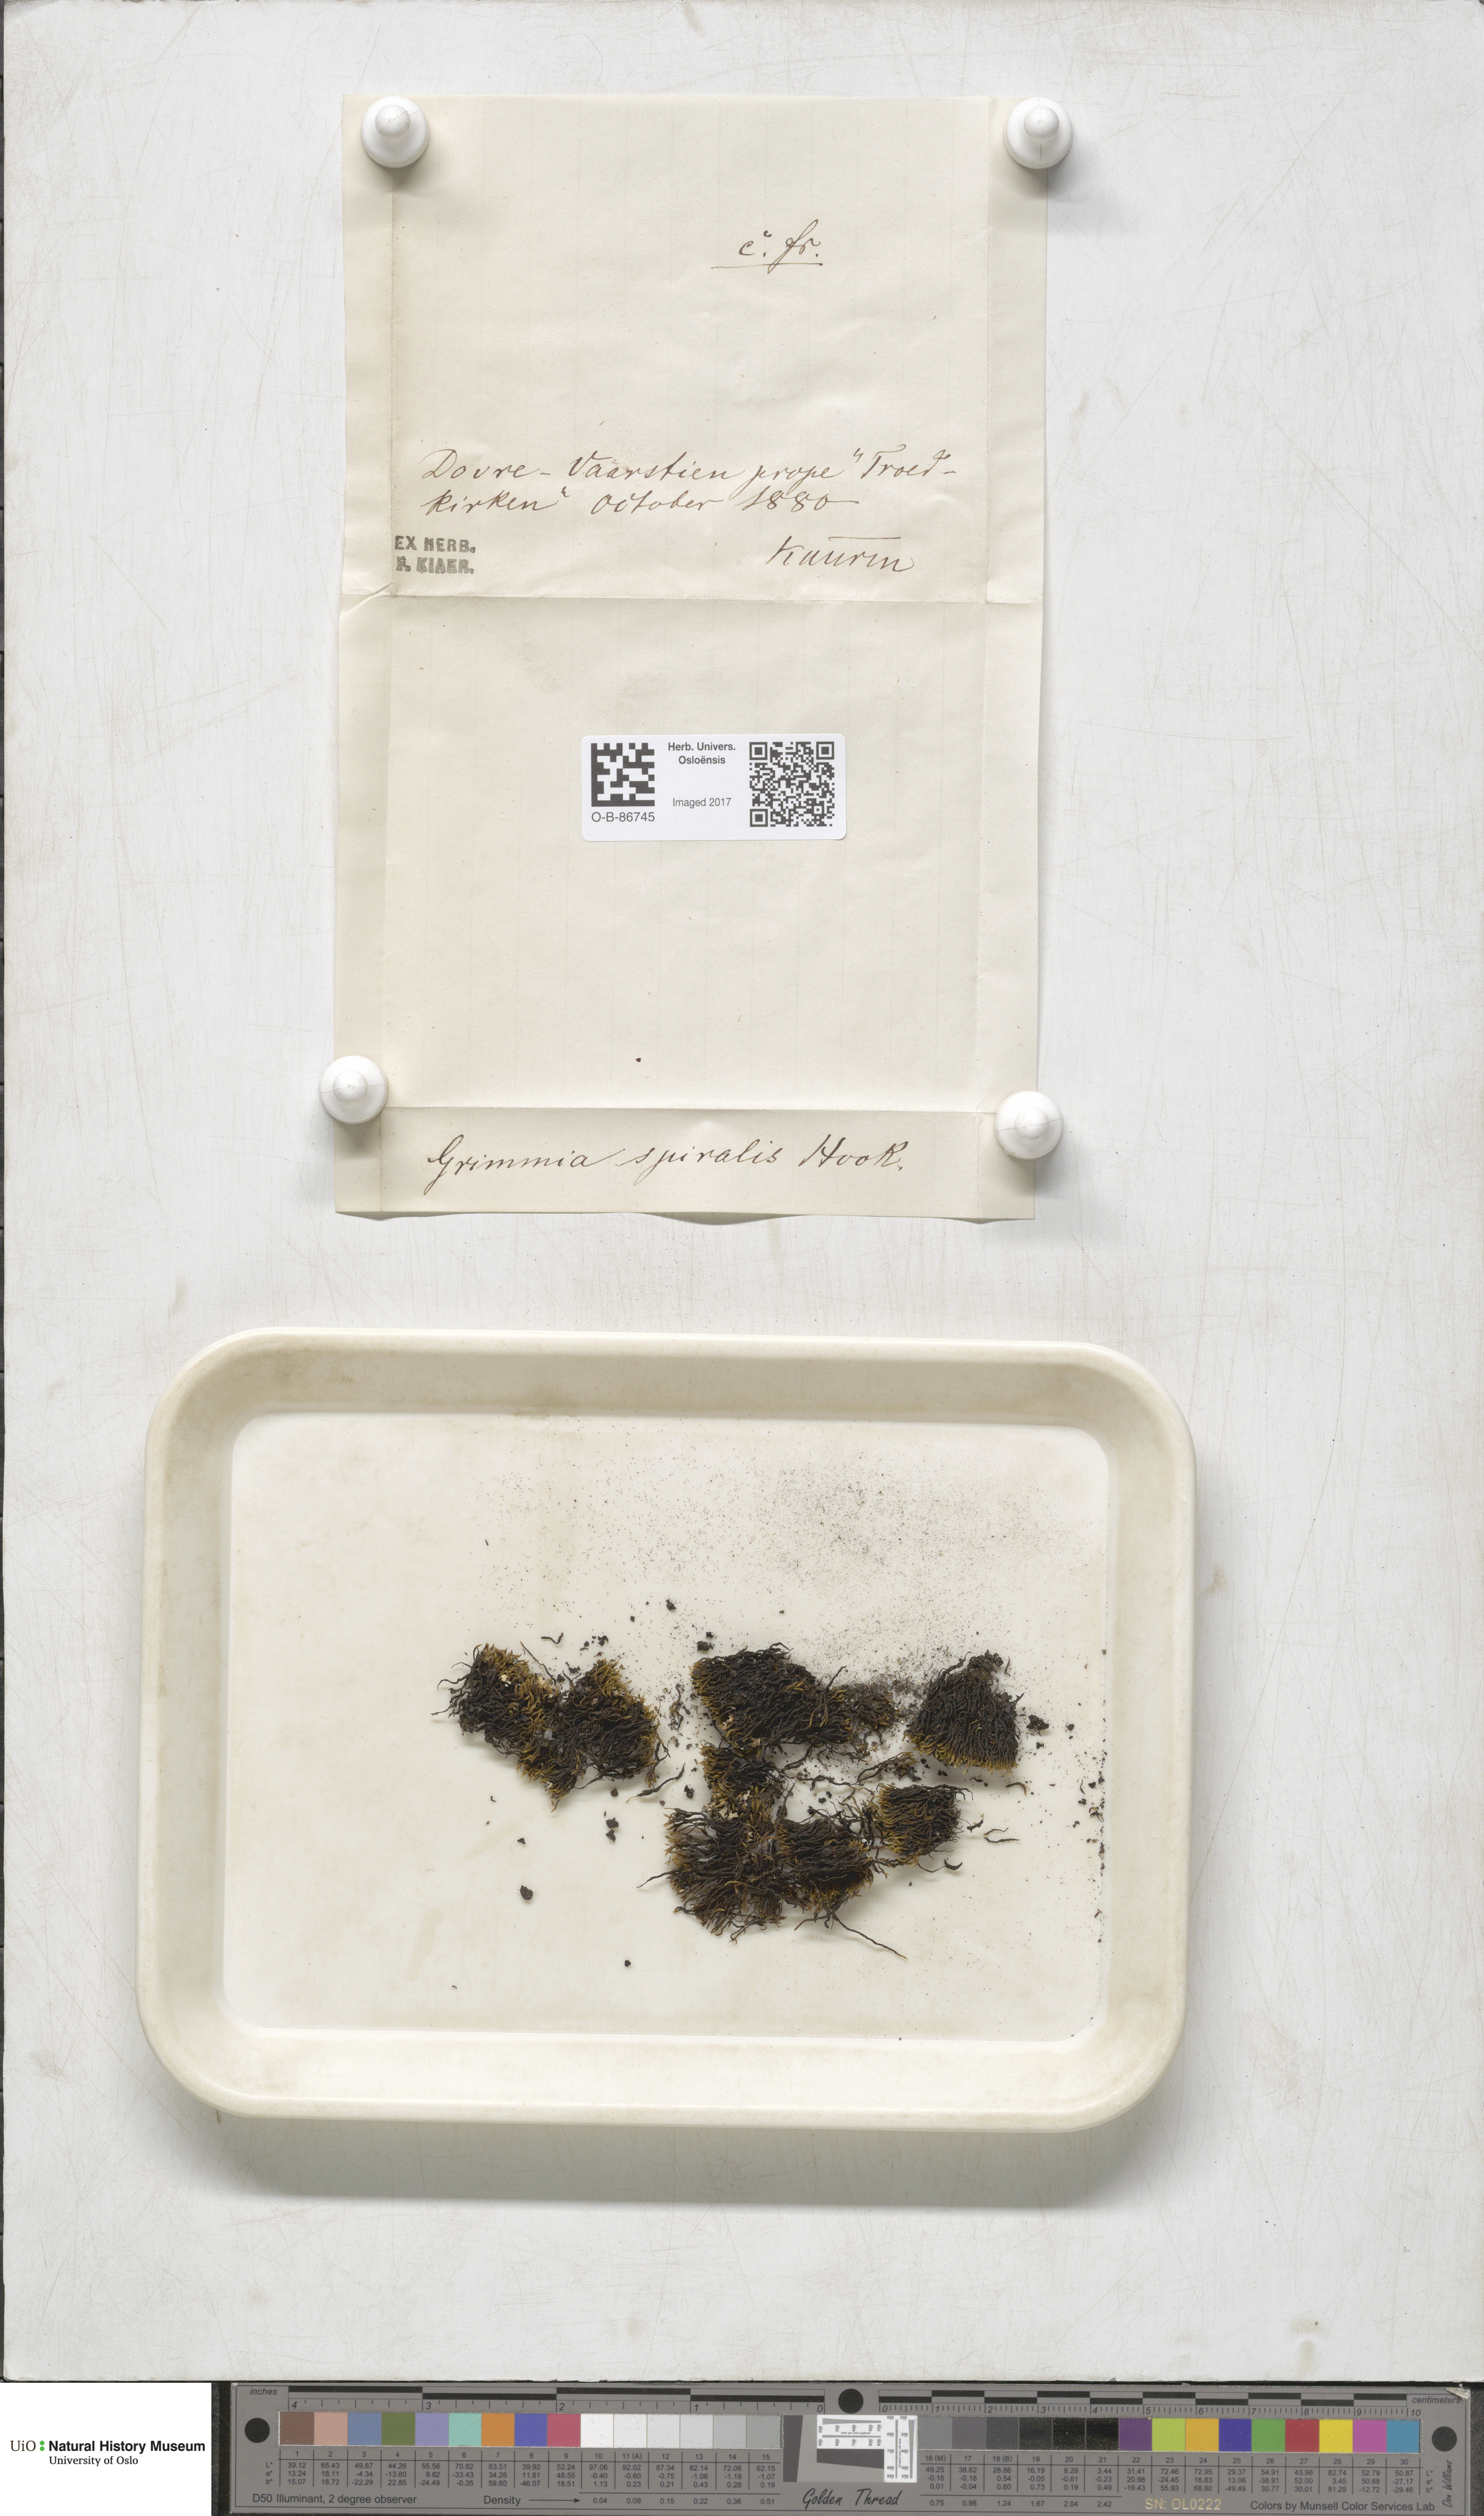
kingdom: Plantae
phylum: Bryophyta
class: Bryopsida
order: Grimmiales
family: Grimmiaceae
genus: Grimmia
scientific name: Grimmia funalis
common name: String grimmia
